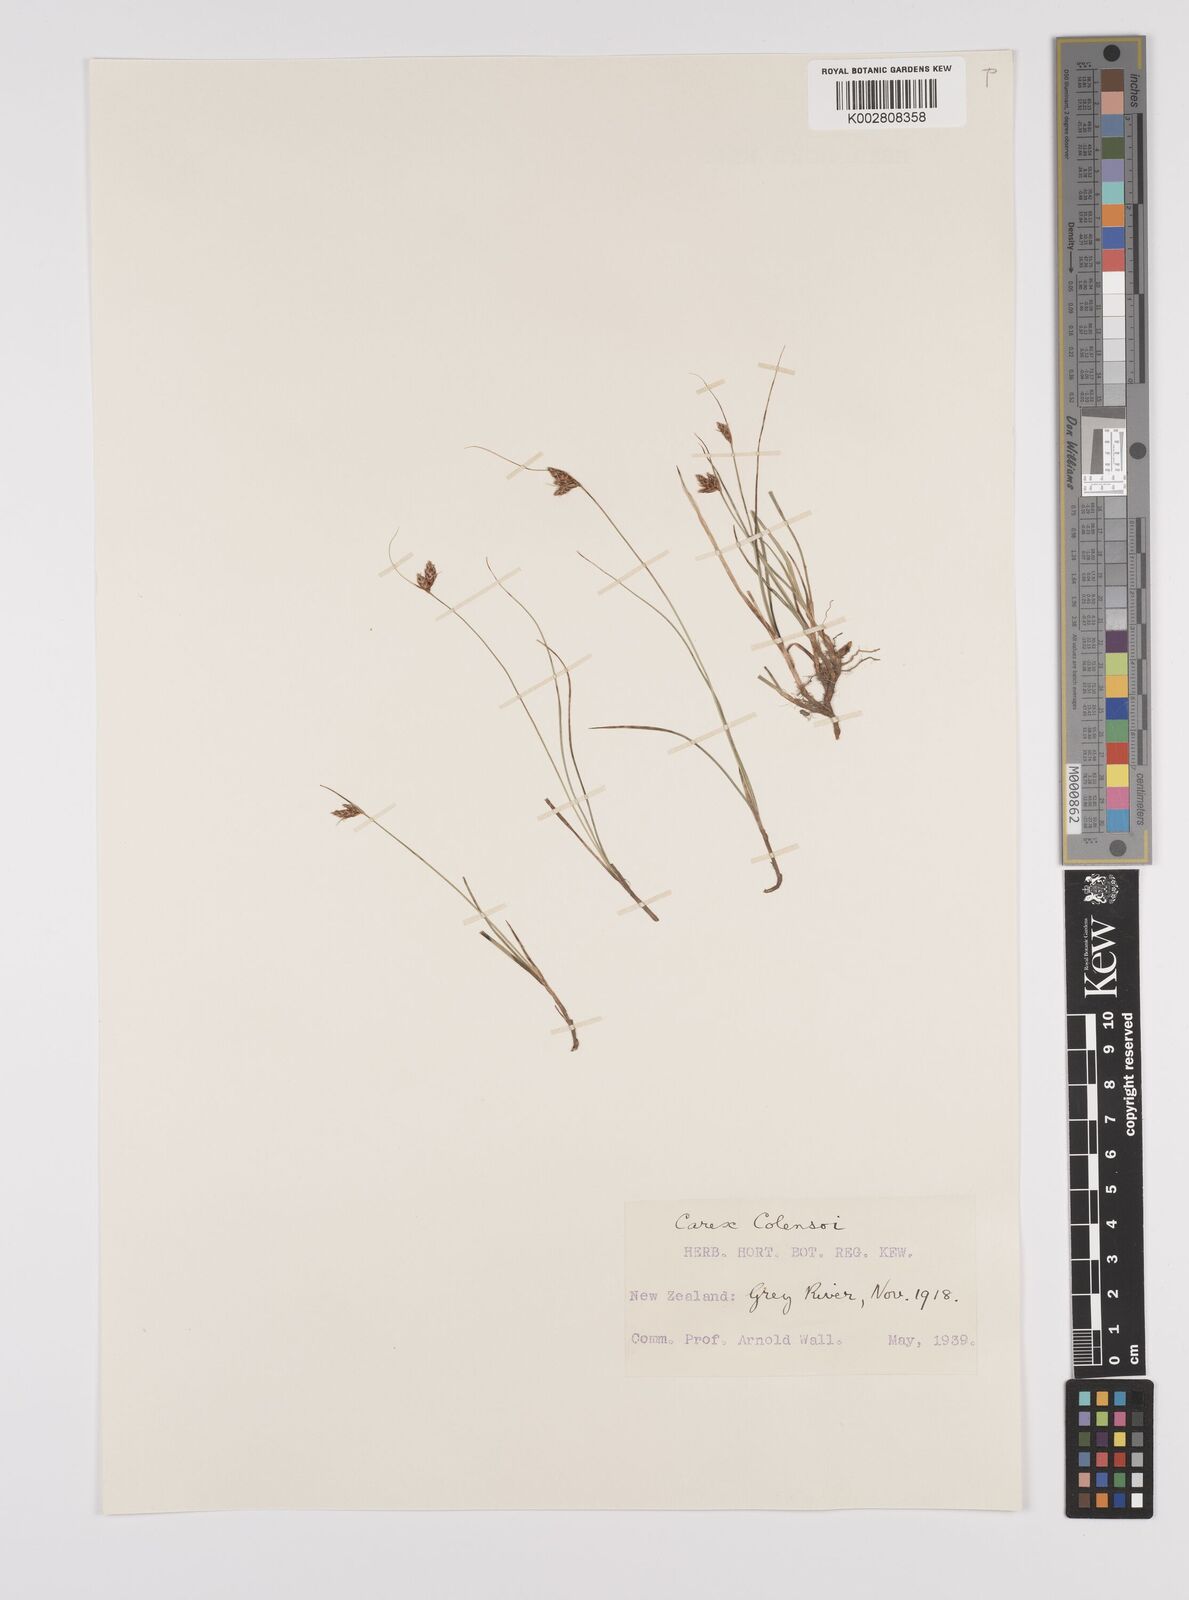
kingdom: Plantae
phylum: Tracheophyta
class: Liliopsida
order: Poales
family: Cyperaceae
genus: Carex
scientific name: Carex colensoi
